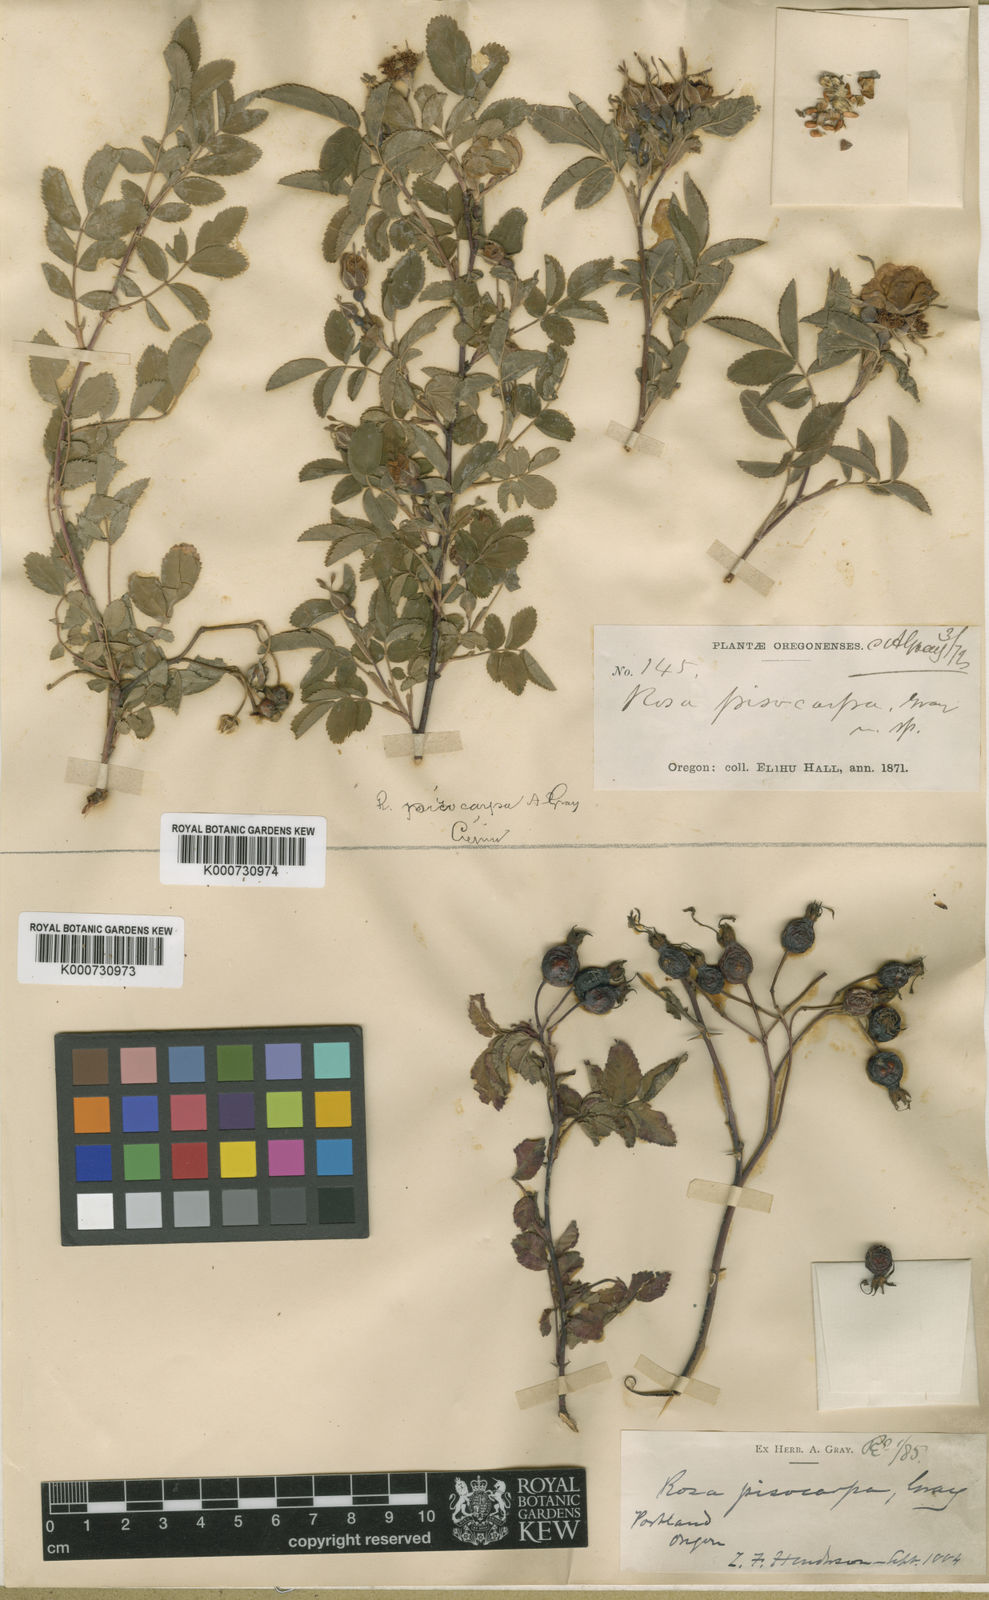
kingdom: Plantae
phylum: Tracheophyta
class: Magnoliopsida
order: Rosales
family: Rosaceae
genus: Rosa
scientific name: Rosa pisocarpa
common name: Cluster rose
